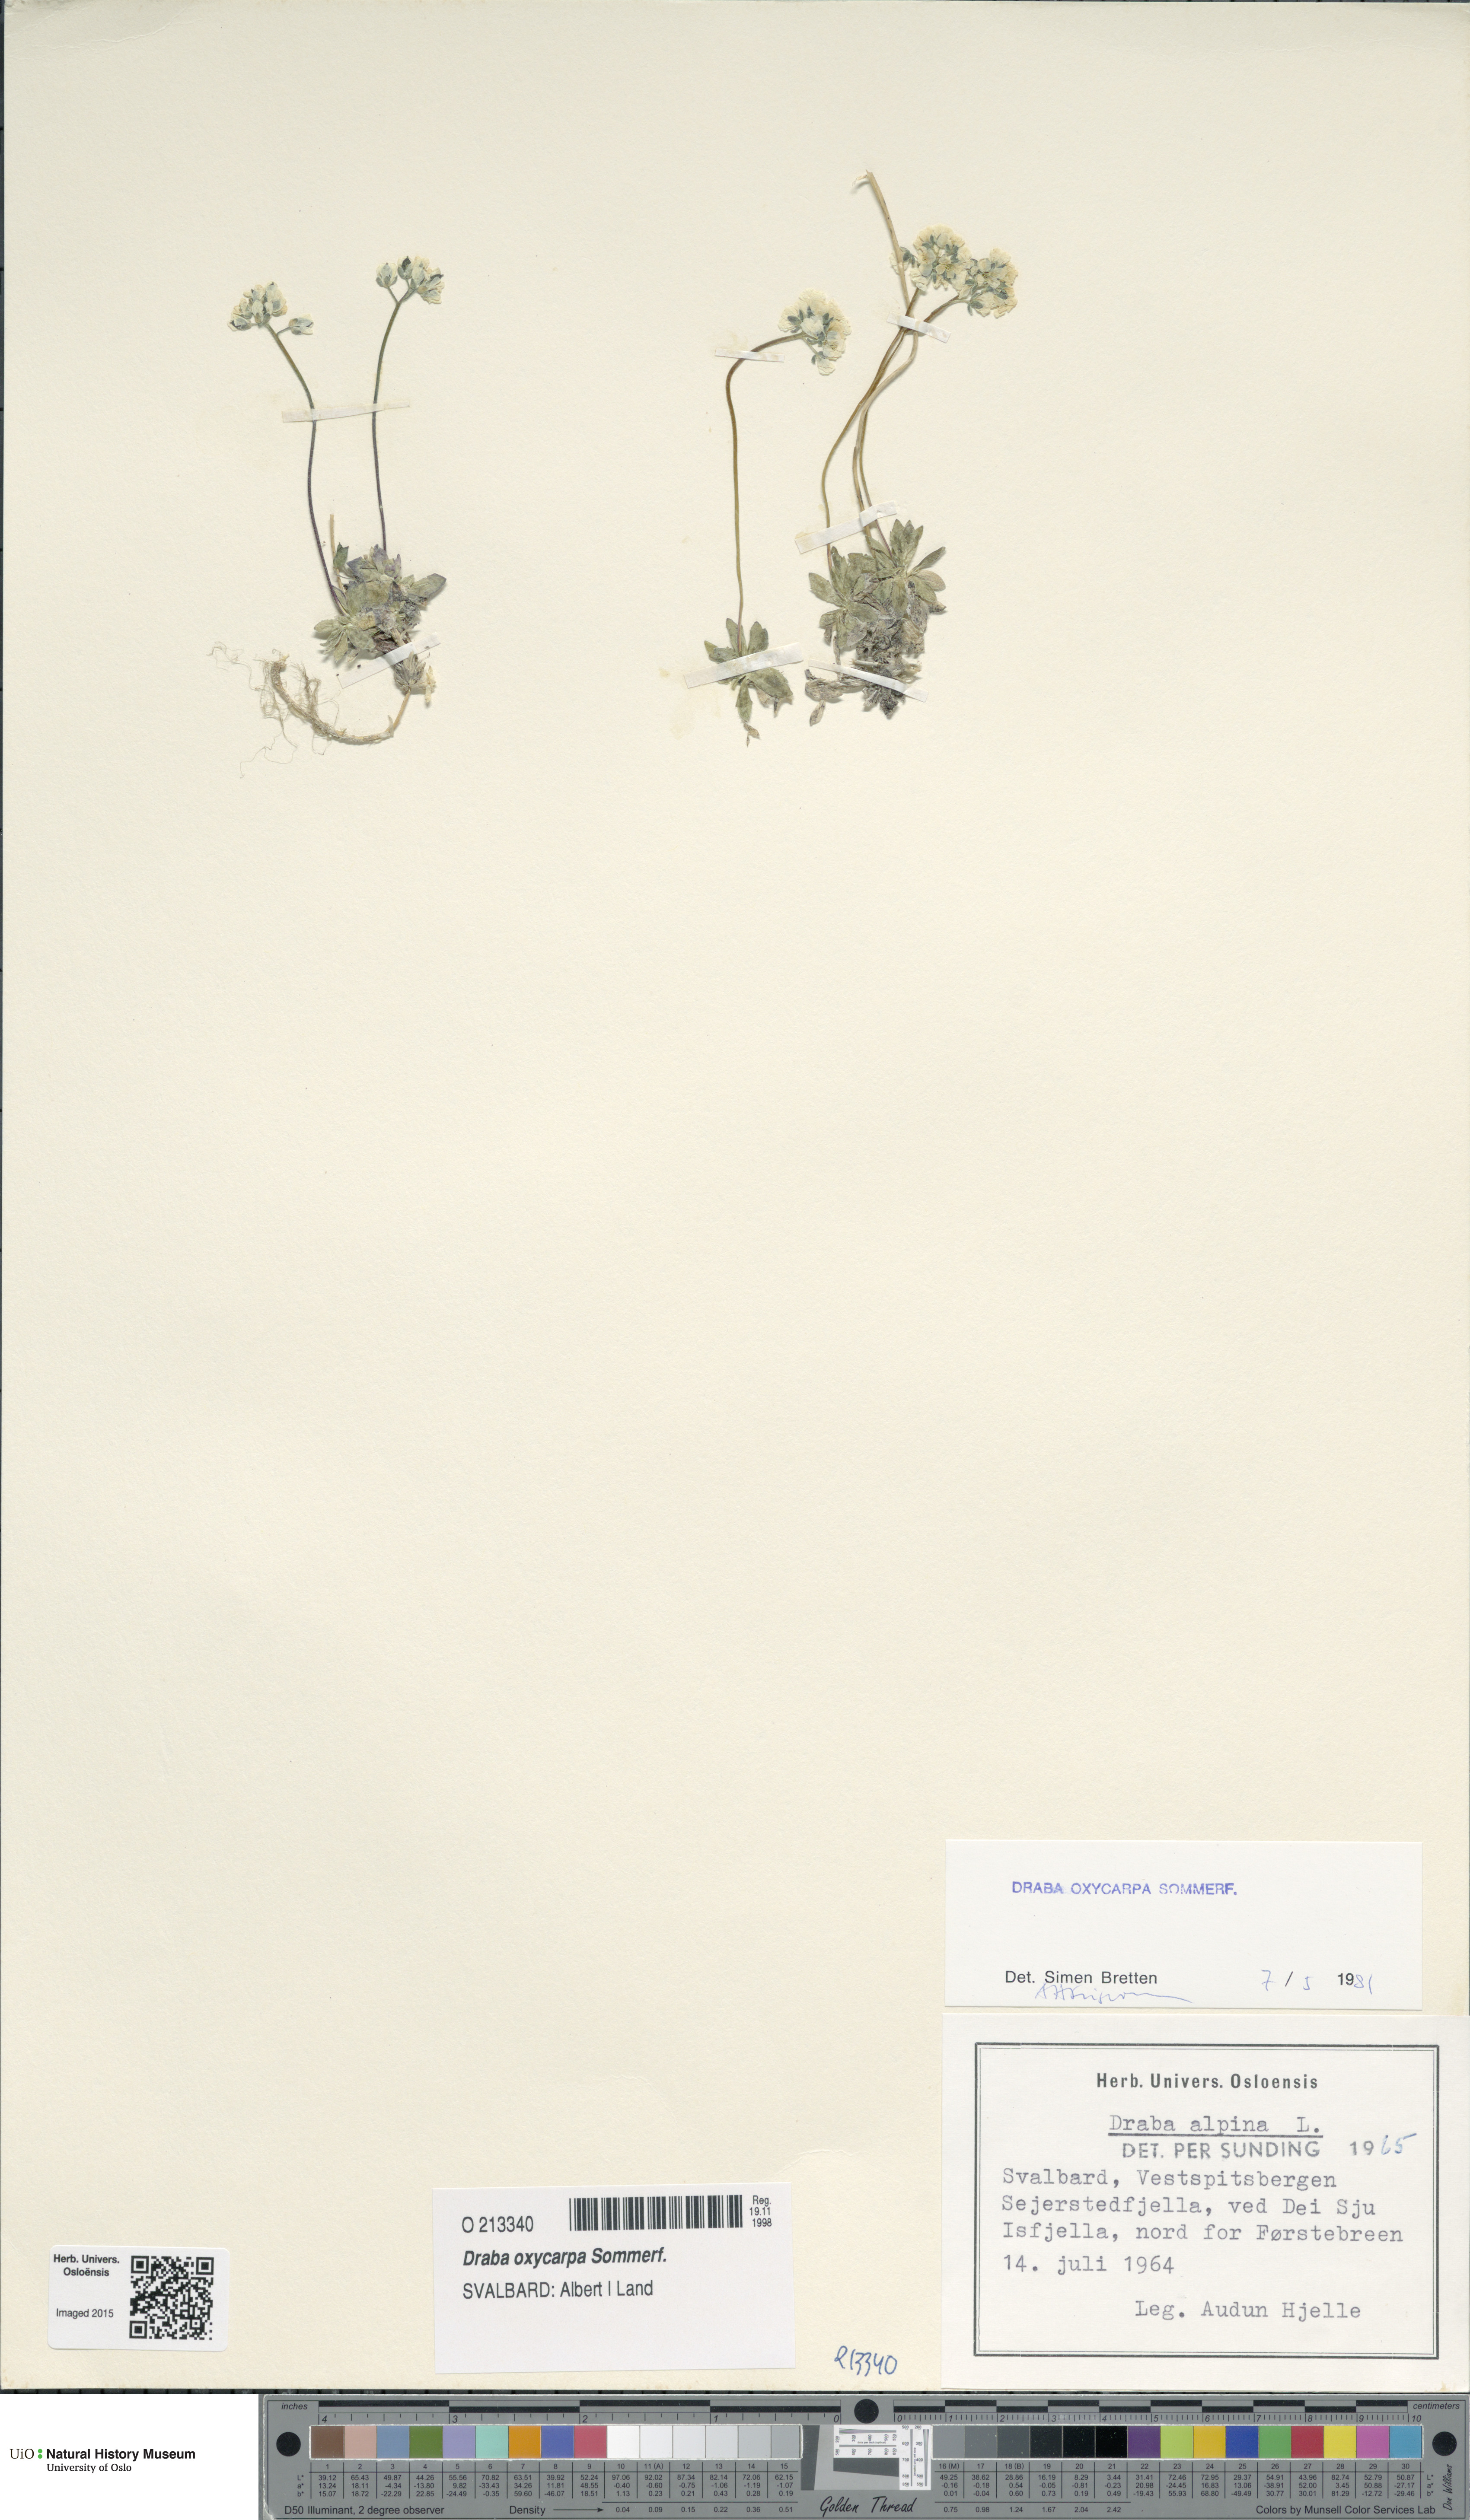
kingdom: Plantae
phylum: Tracheophyta
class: Magnoliopsida
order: Brassicales
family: Brassicaceae
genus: Draba
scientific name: Draba oxycarpa
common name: Sharp-fruited whitlow-grass
